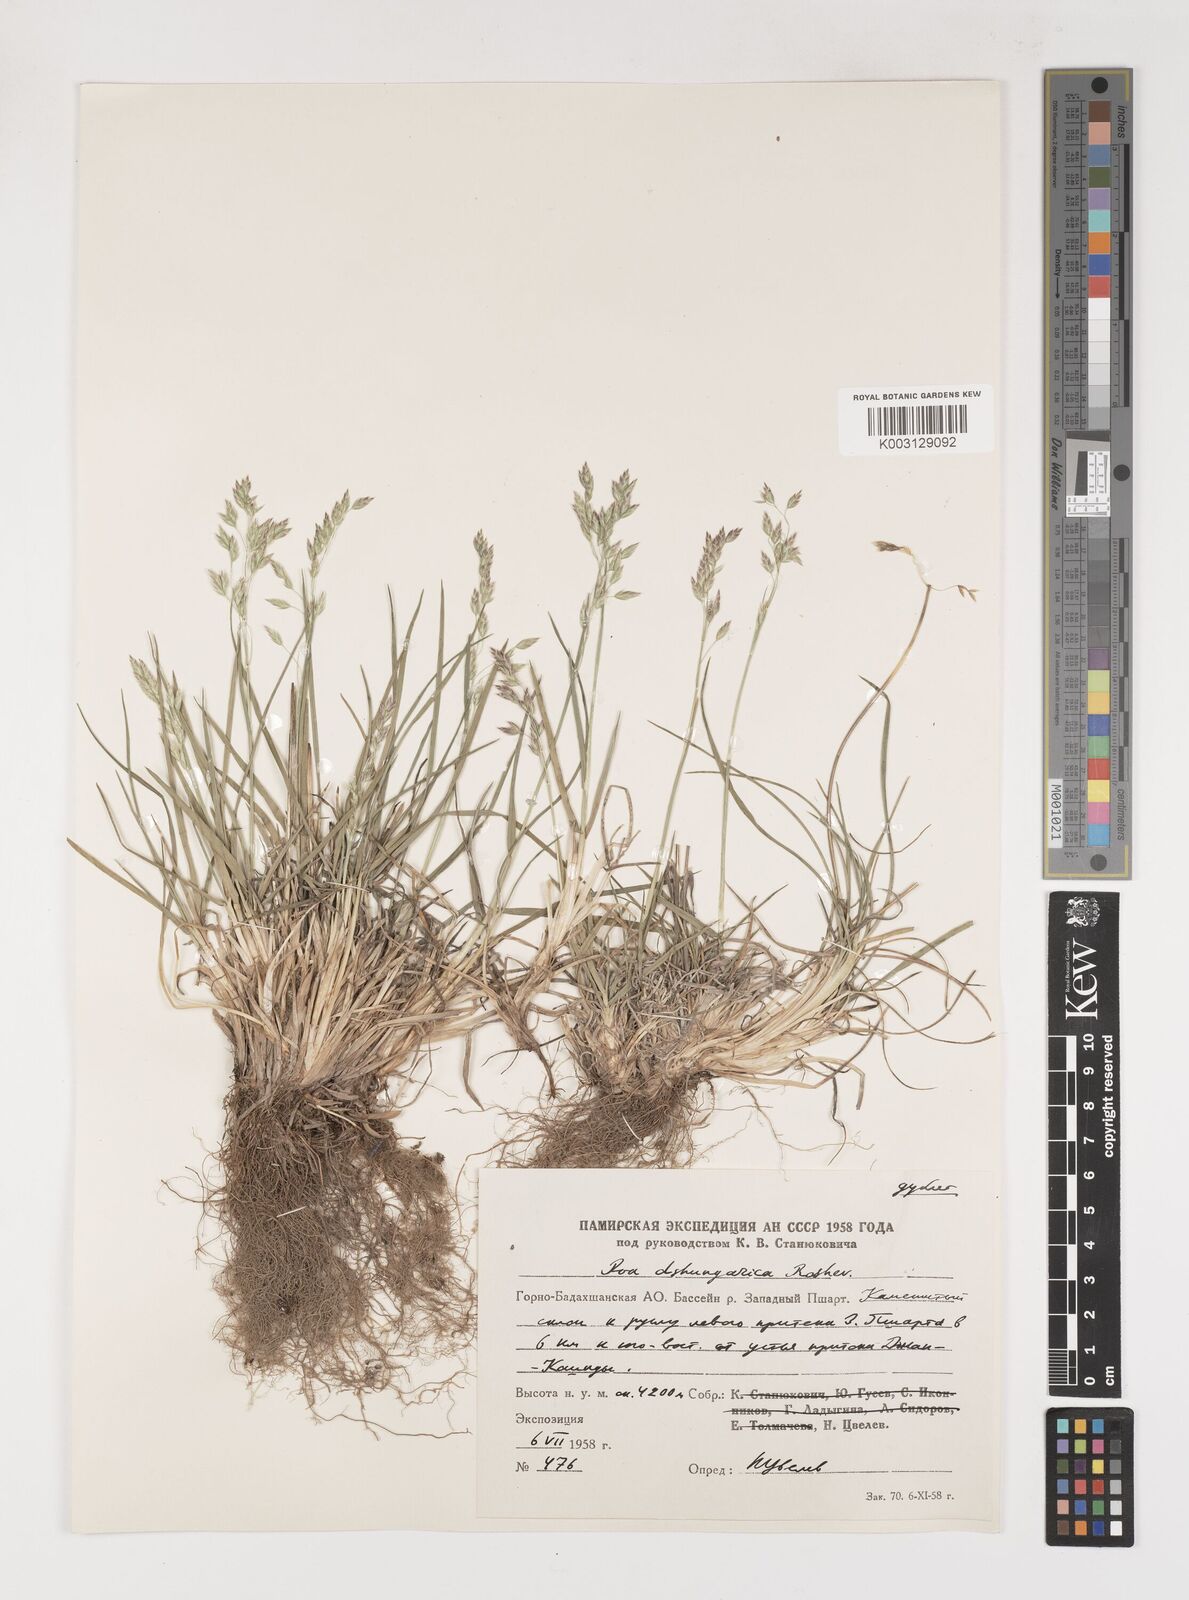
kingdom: Plantae
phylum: Tracheophyta
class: Liliopsida
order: Poales
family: Poaceae
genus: Poa
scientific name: Poa lipskyi
